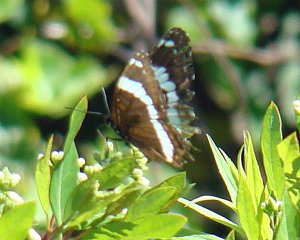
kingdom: Animalia
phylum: Arthropoda
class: Insecta
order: Lepidoptera
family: Nymphalidae
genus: Limenitis
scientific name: Limenitis arthemis
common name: Red-spotted Admiral
